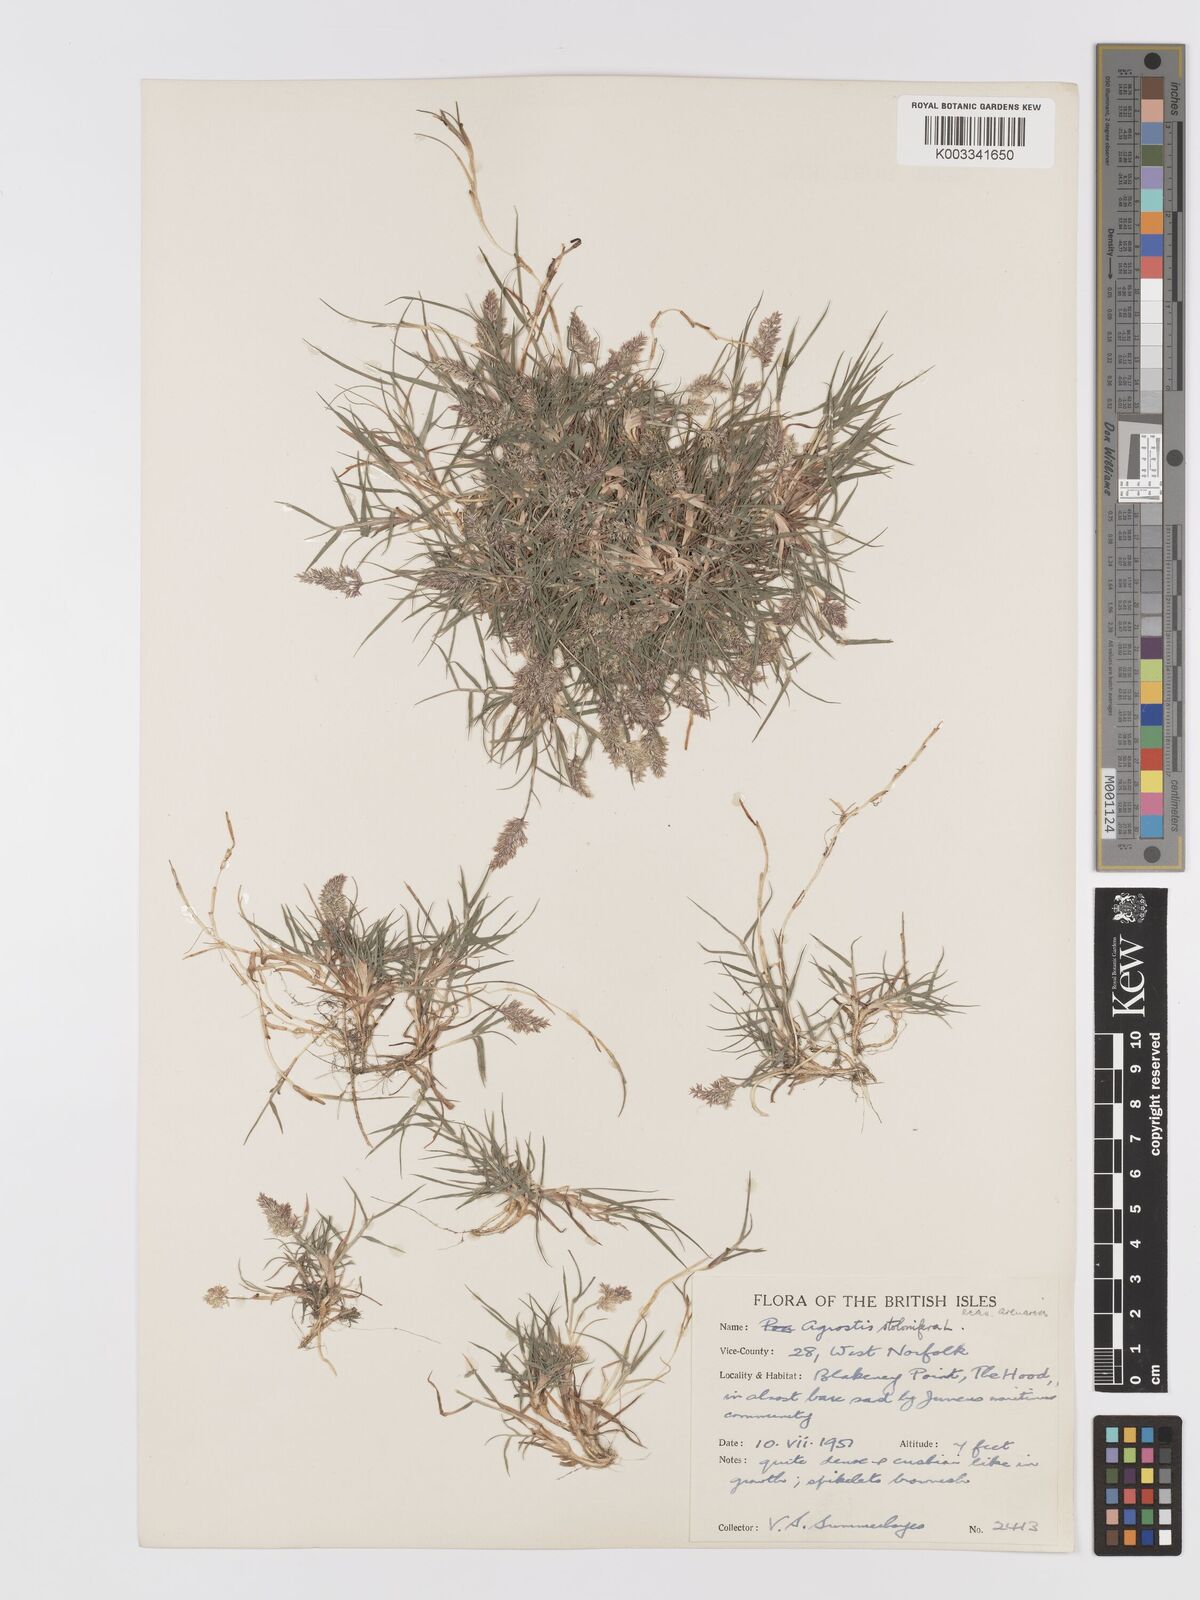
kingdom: Plantae
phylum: Tracheophyta
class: Liliopsida
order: Poales
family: Poaceae
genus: Agrostis
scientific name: Agrostis stolonifera
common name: Creeping bentgrass
